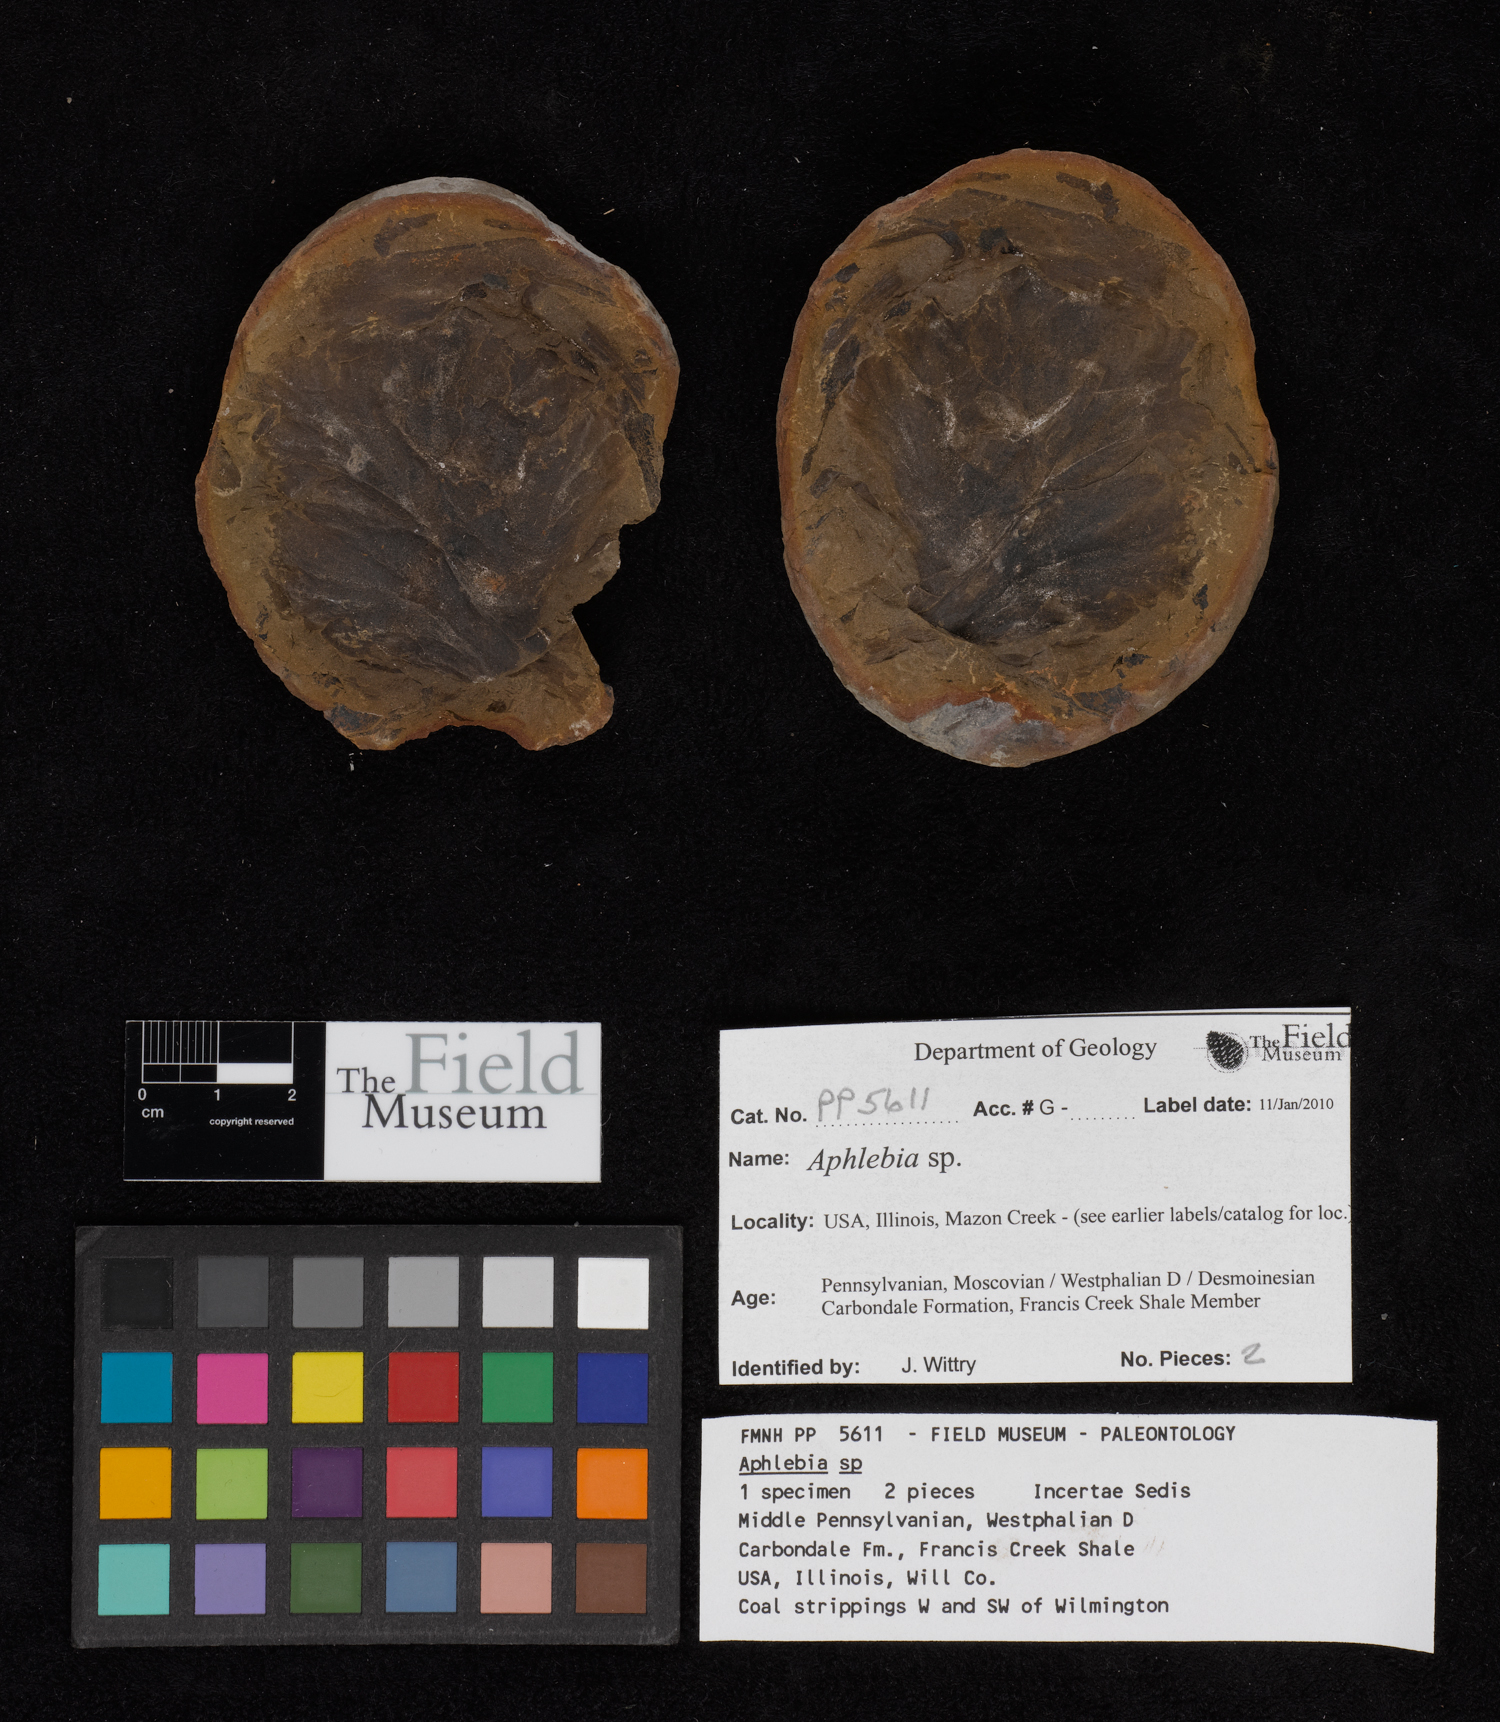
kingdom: Plantae
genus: Rhacophyllum
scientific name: Rhacophyllum
